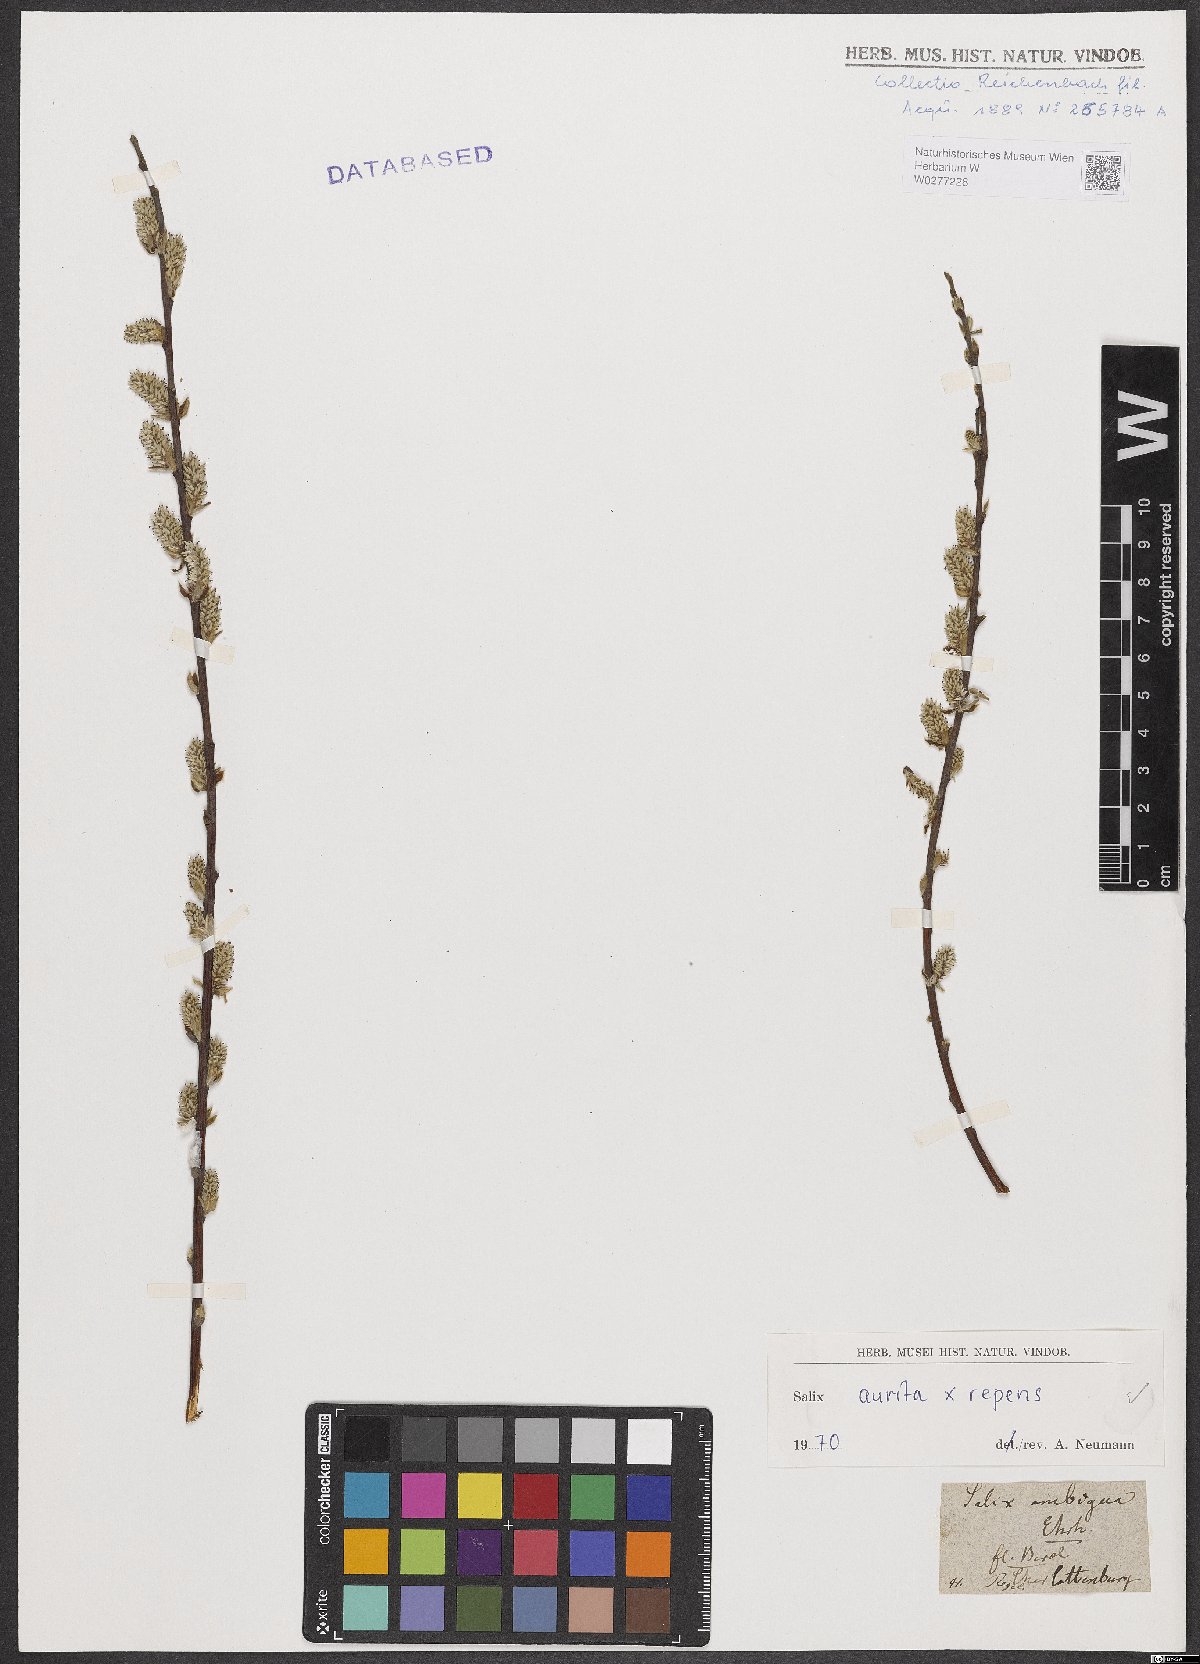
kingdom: Plantae
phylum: Tracheophyta
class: Magnoliopsida
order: Malpighiales
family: Salicaceae
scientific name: Salicaceae
